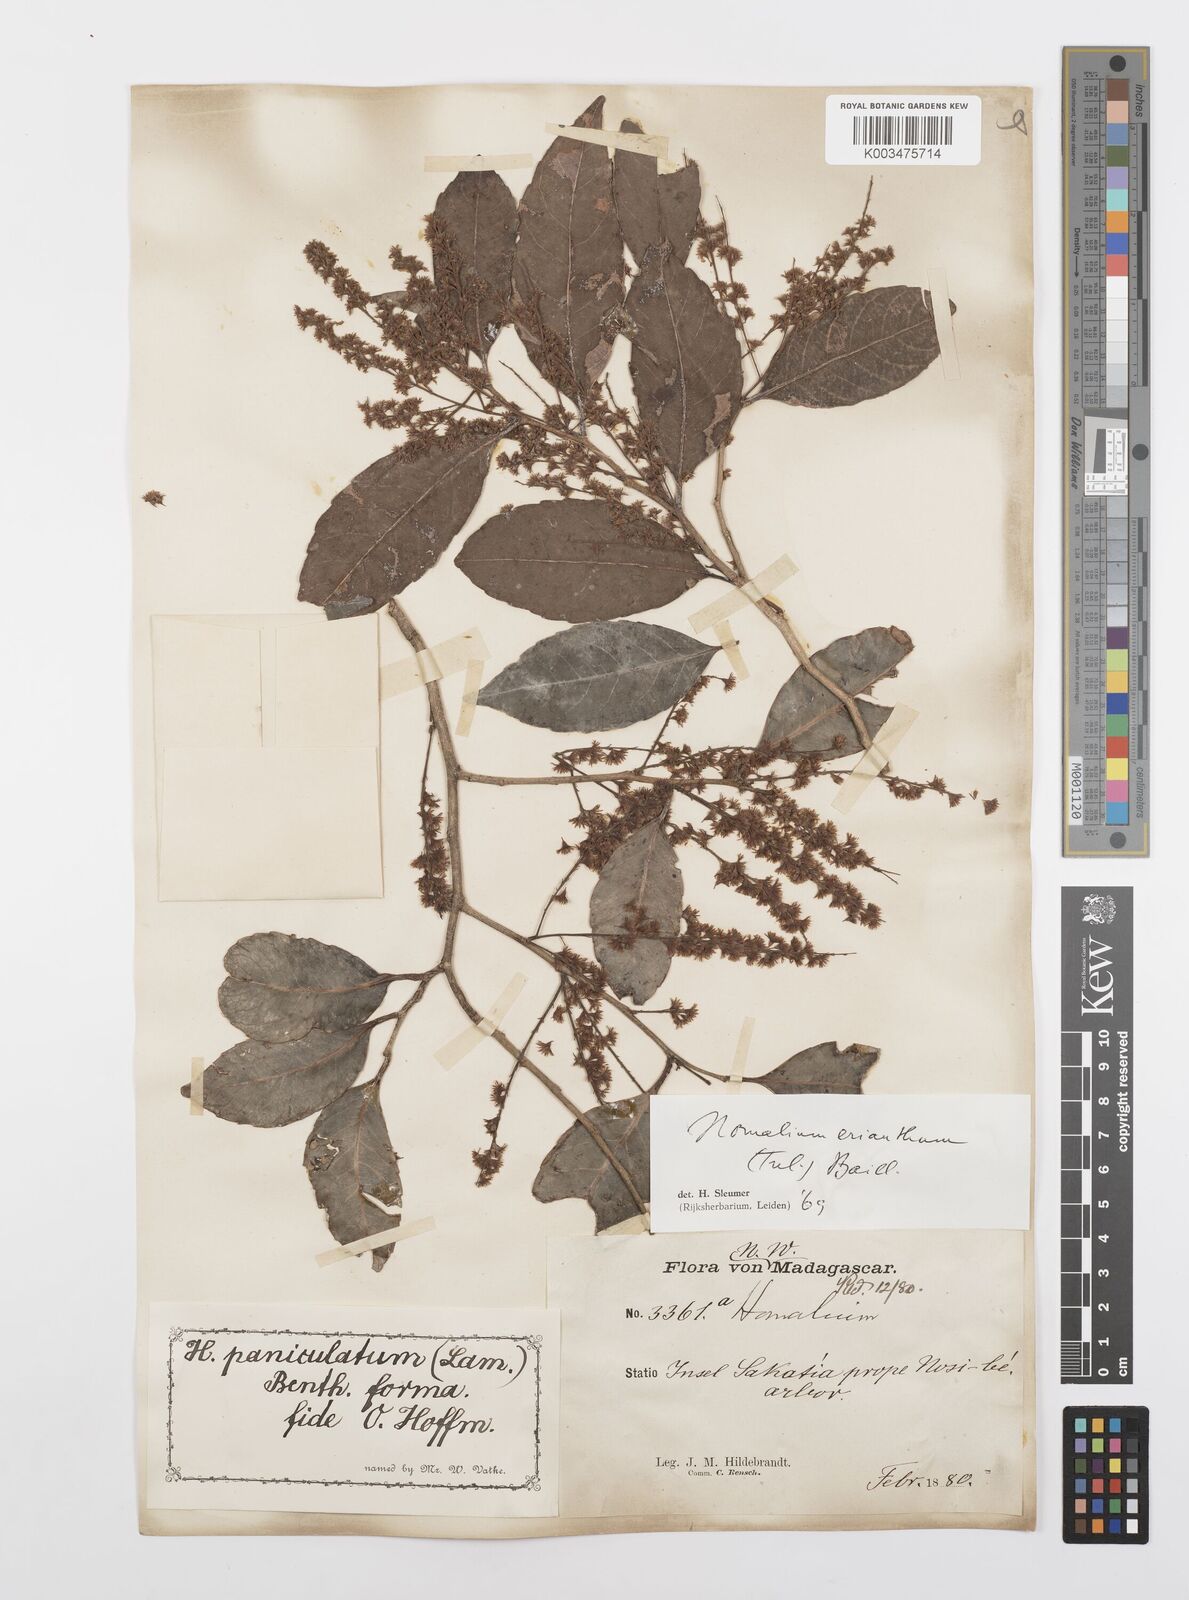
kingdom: Plantae
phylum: Tracheophyta
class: Magnoliopsida
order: Malpighiales
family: Salicaceae
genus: Homalium
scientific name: Homalium erianthum
